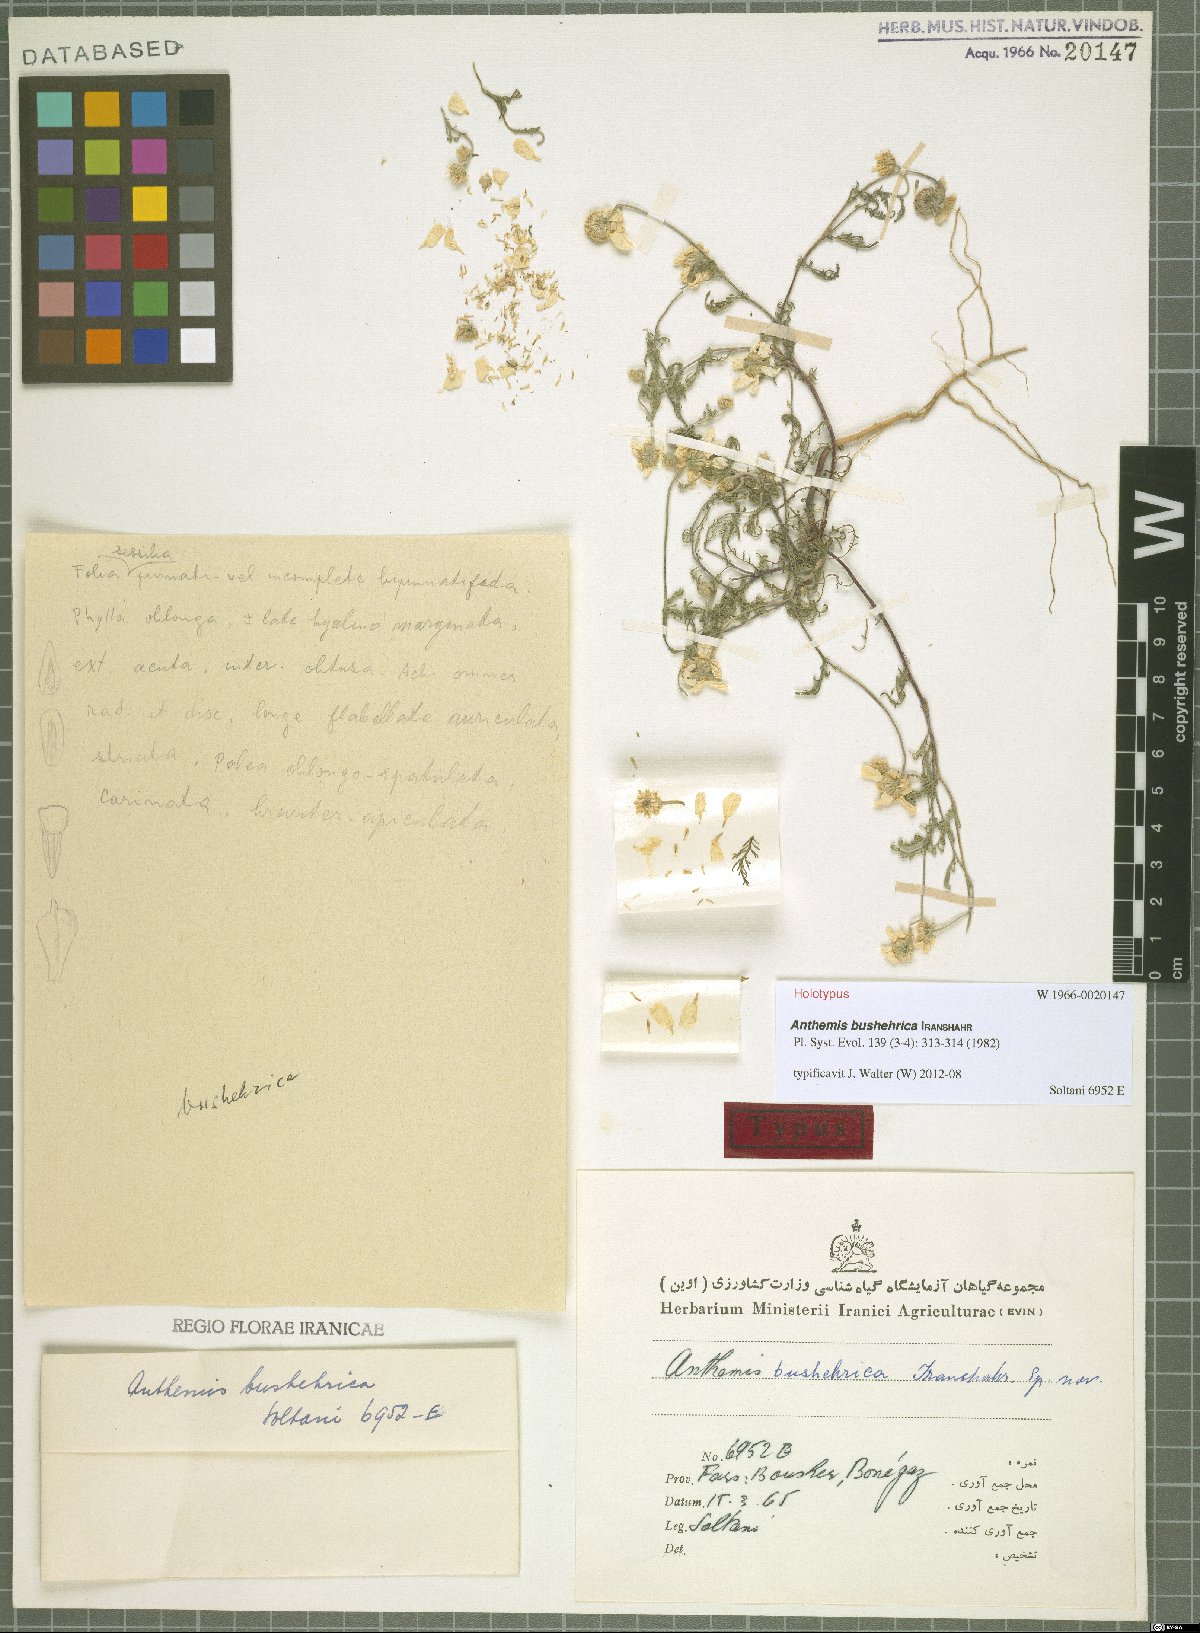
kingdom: Plantae
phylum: Tracheophyta
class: Magnoliopsida
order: Asterales
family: Asteraceae
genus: Anthemis
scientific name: Anthemis bushehrica
